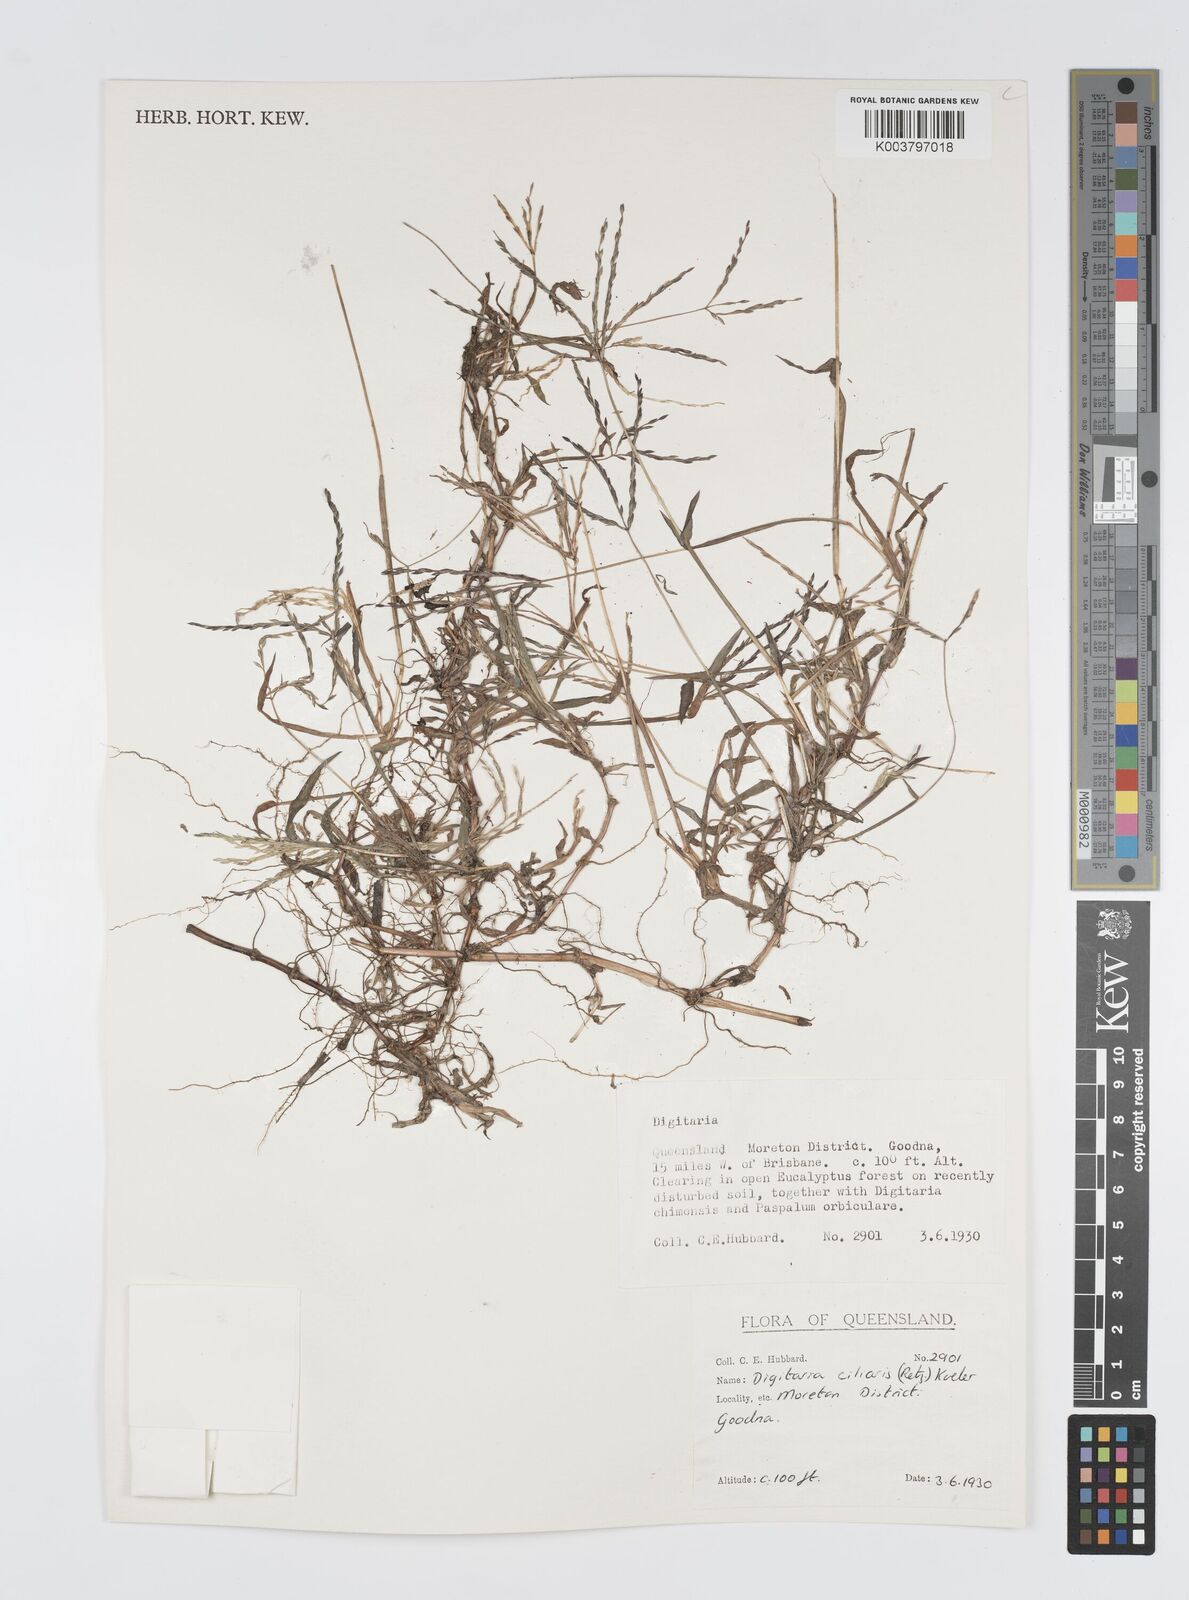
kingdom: Plantae
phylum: Tracheophyta
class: Liliopsida
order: Poales
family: Poaceae
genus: Digitaria
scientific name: Digitaria ciliaris
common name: Tropical finger-grass
